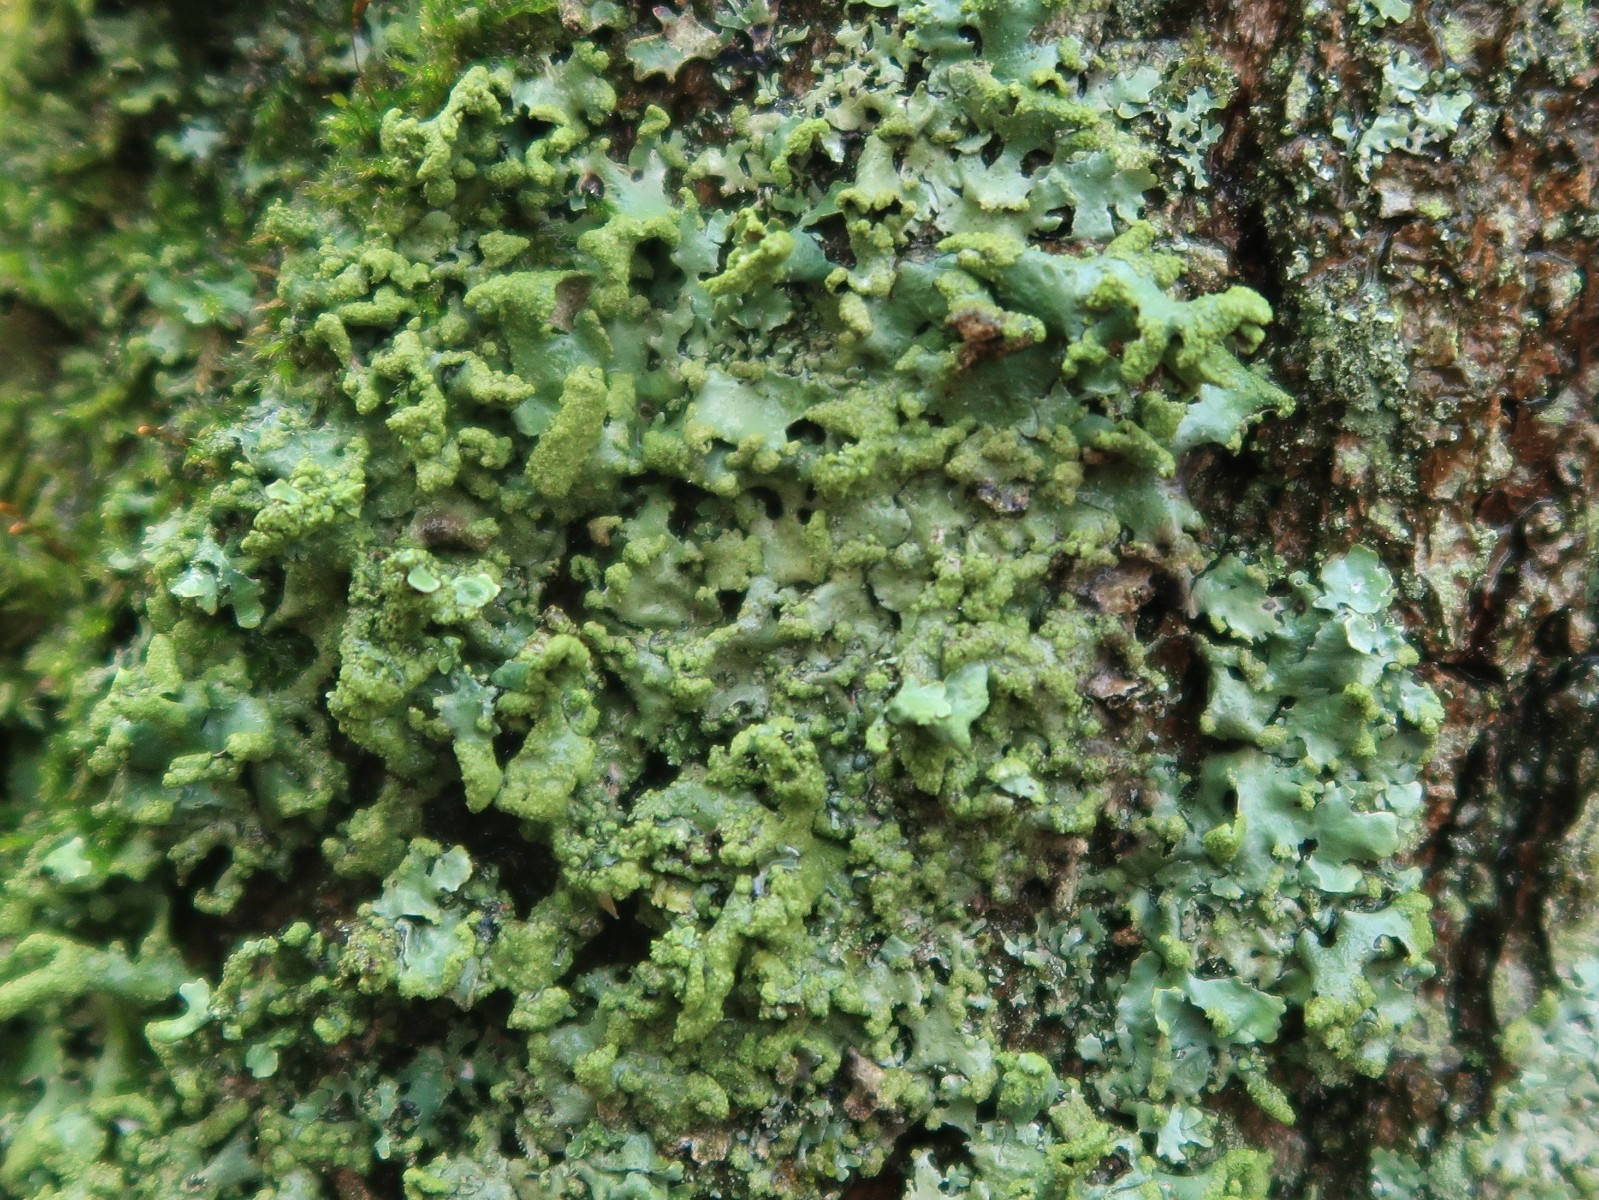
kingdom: Fungi
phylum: Ascomycota
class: Lecanoromycetes
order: Lecanorales
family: Parmeliaceae
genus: Hypotrachyna
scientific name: Hypotrachyna revoluta
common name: bleggrå skållav
